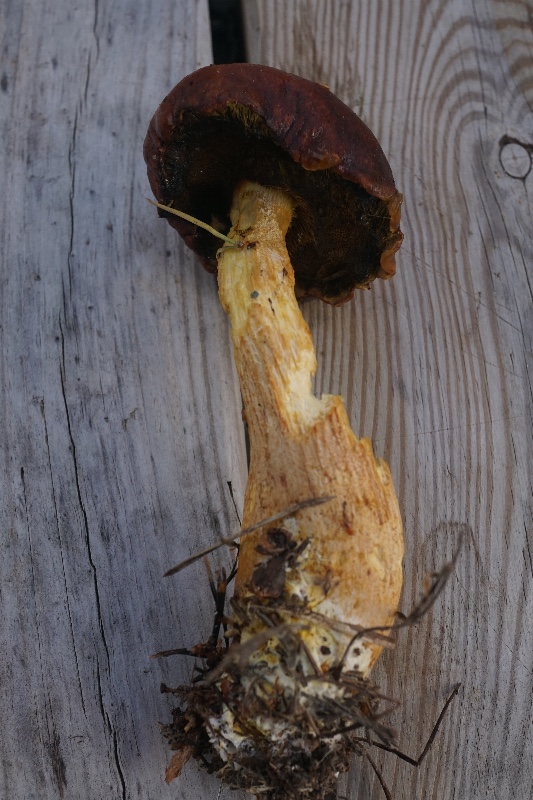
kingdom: Fungi
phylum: Basidiomycota
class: Agaricomycetes
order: Boletales
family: Boletaceae
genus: Aureoboletus
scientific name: Aureoboletus projectellus
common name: ribbestokket rørhat
